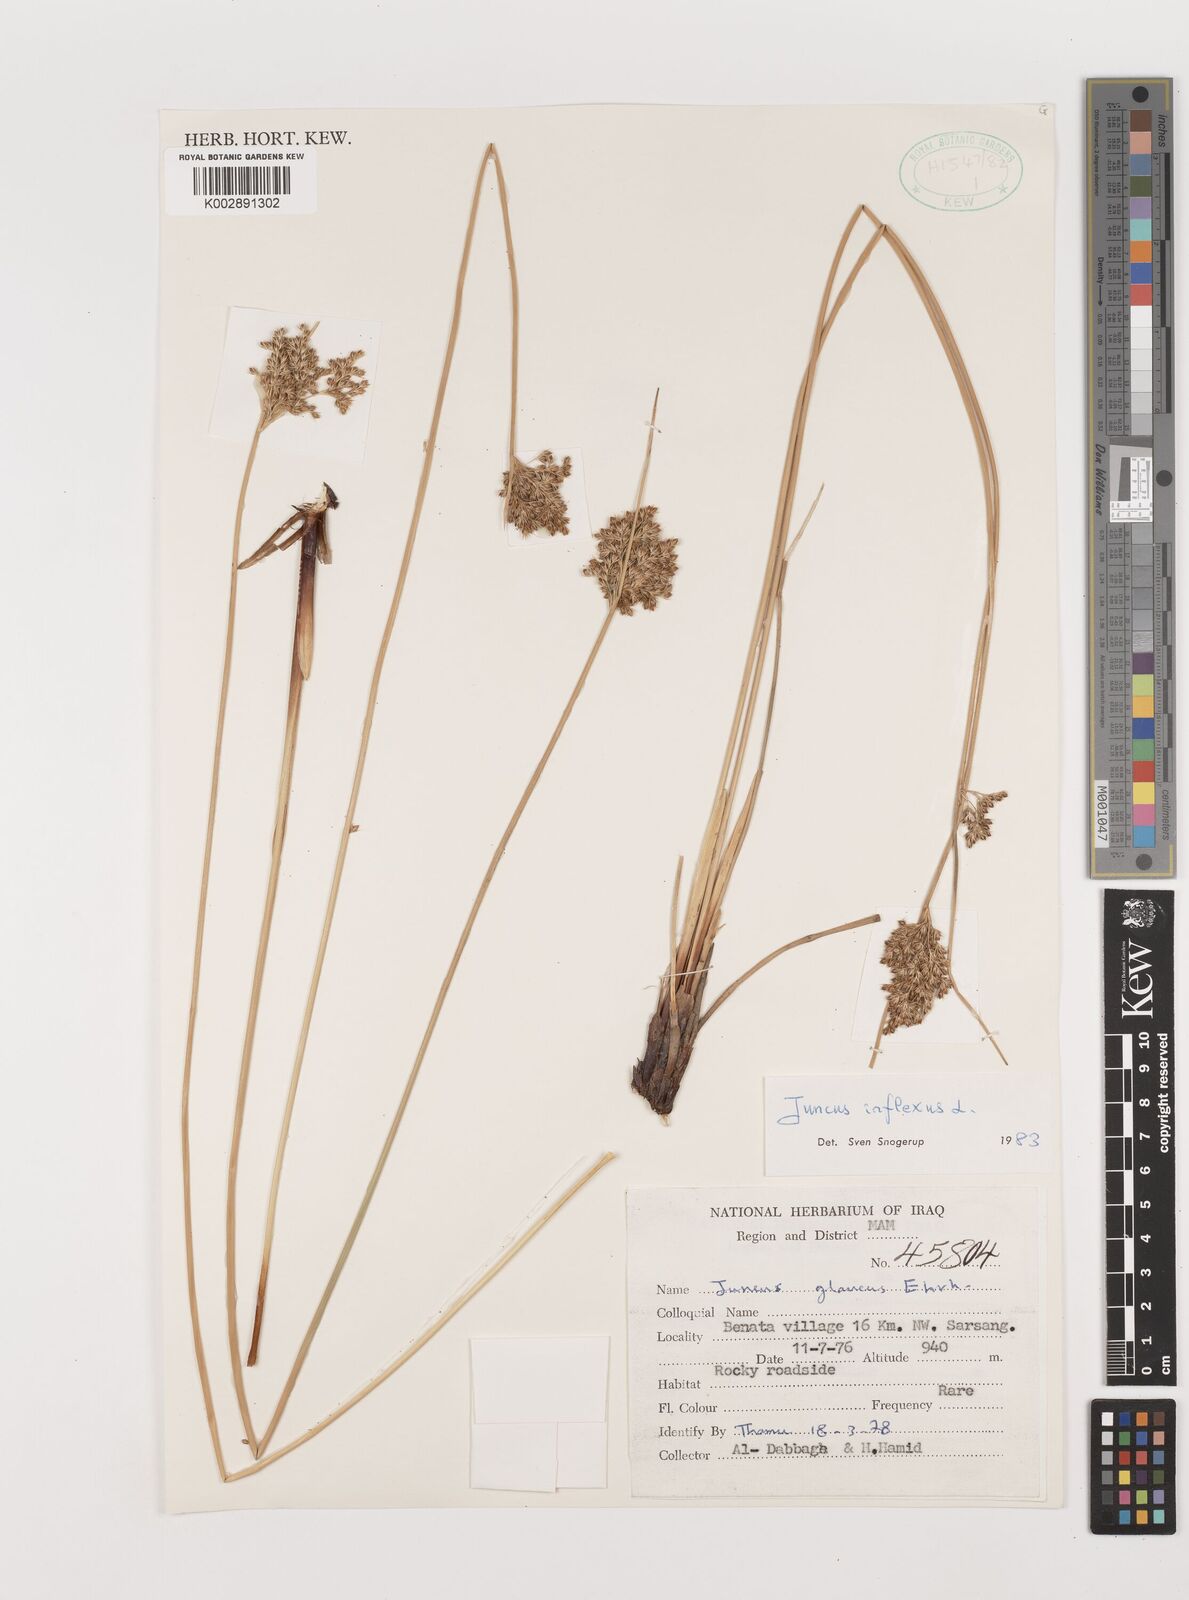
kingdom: Plantae
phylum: Tracheophyta
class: Liliopsida
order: Poales
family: Juncaceae
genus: Juncus
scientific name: Juncus inflexus
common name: Hard rush
